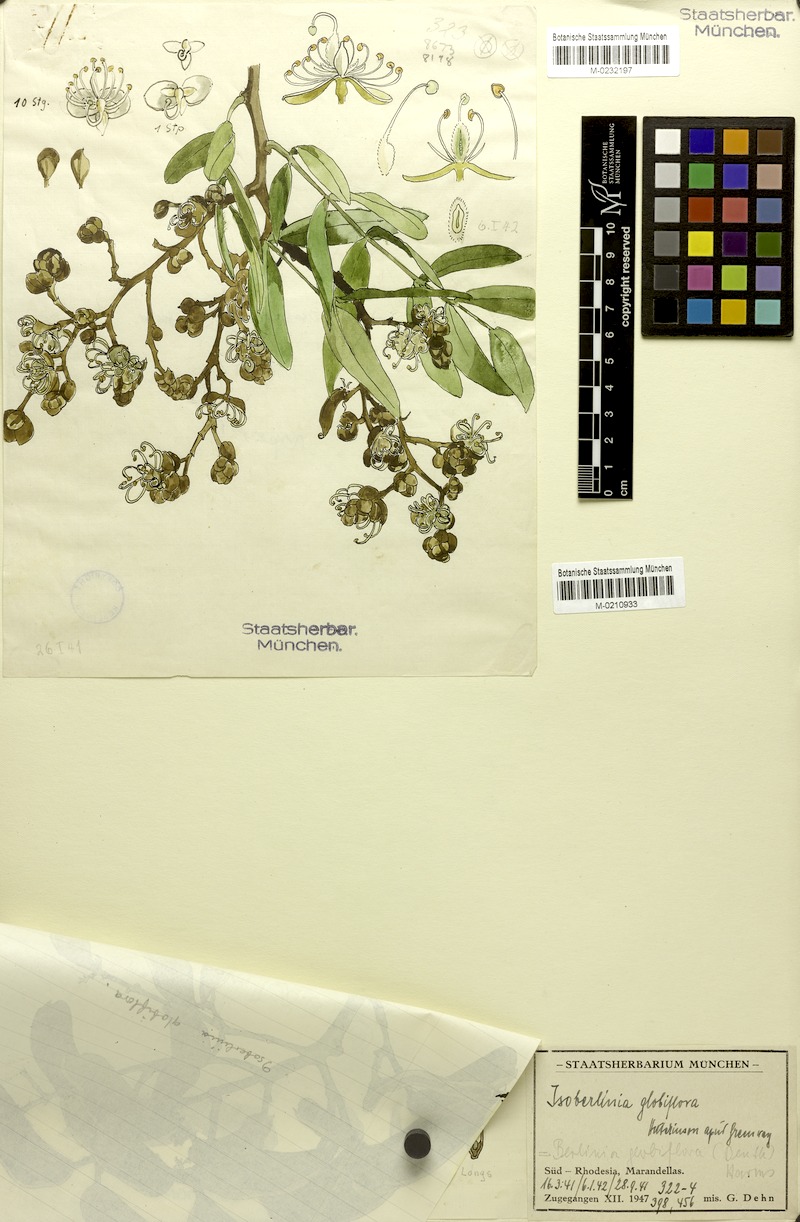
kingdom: Plantae
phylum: Tracheophyta
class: Magnoliopsida
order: Fabales
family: Fabaceae
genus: Julbernardia
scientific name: Julbernardia globiflora
